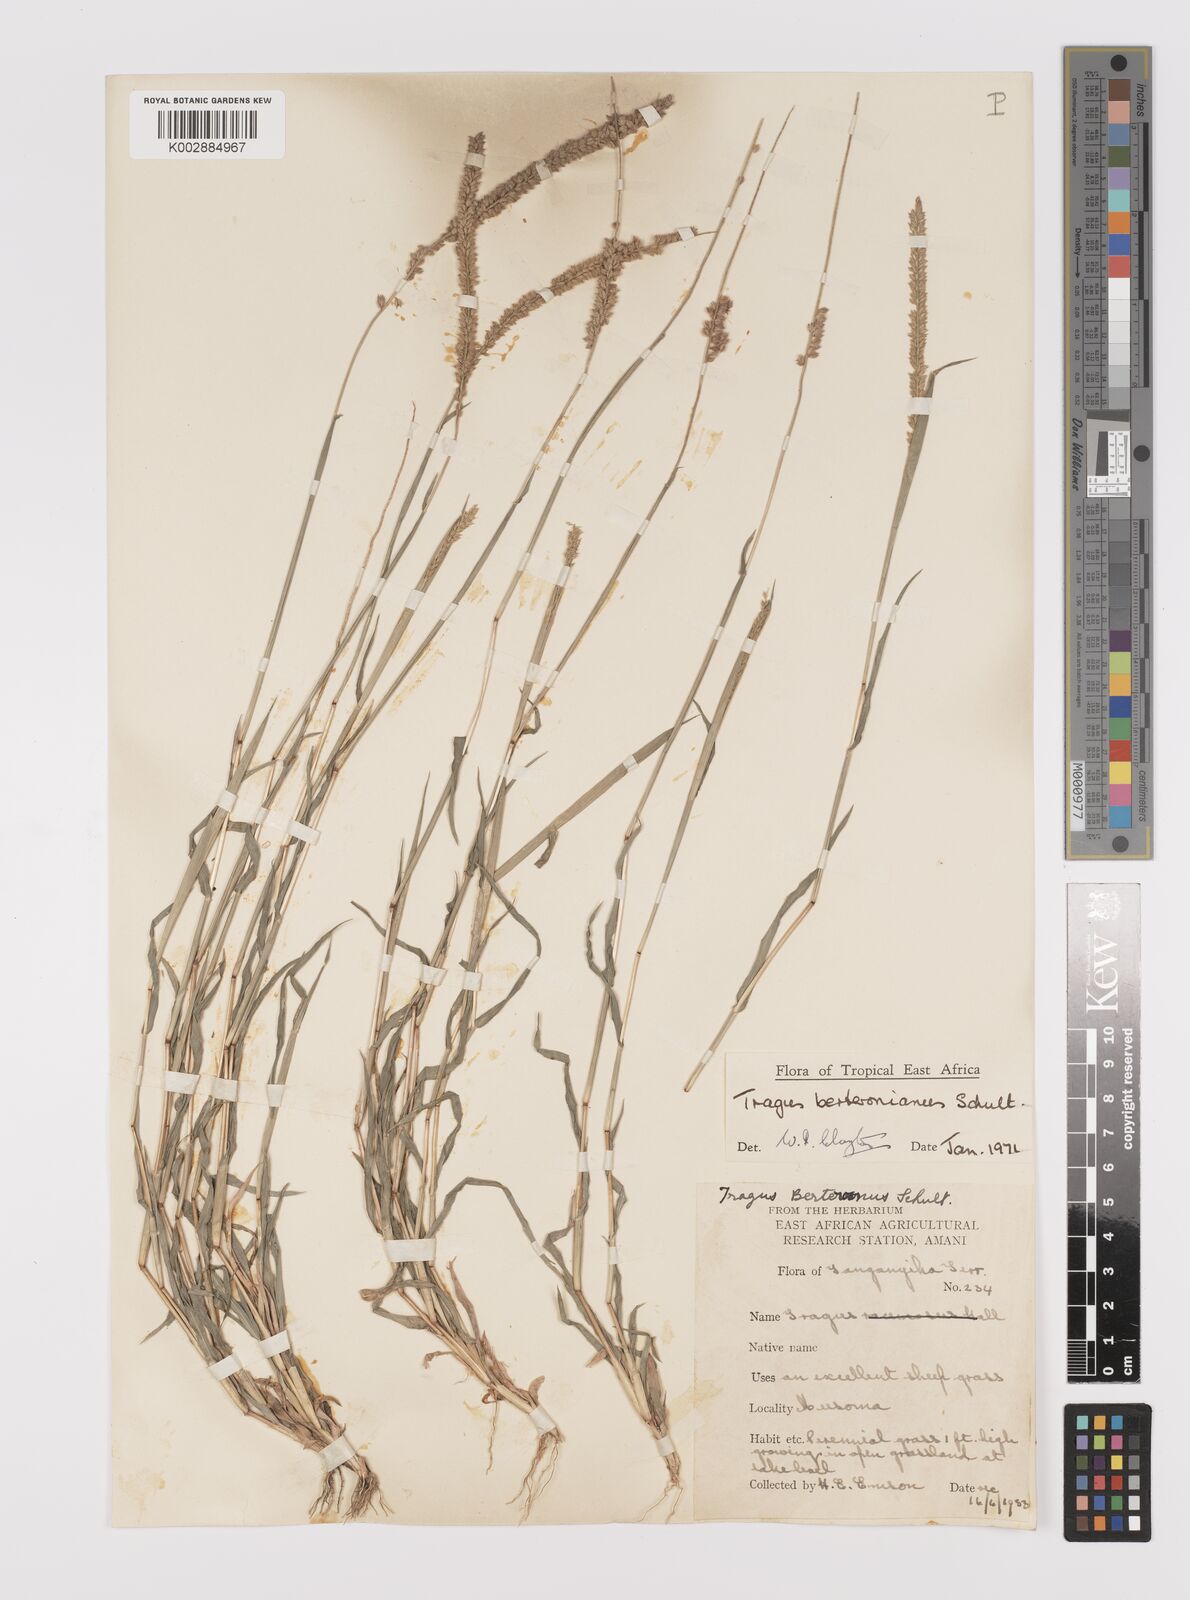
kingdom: Plantae
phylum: Tracheophyta
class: Liliopsida
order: Poales
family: Poaceae
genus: Tragus
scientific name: Tragus berteronianus
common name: African bur-grass
